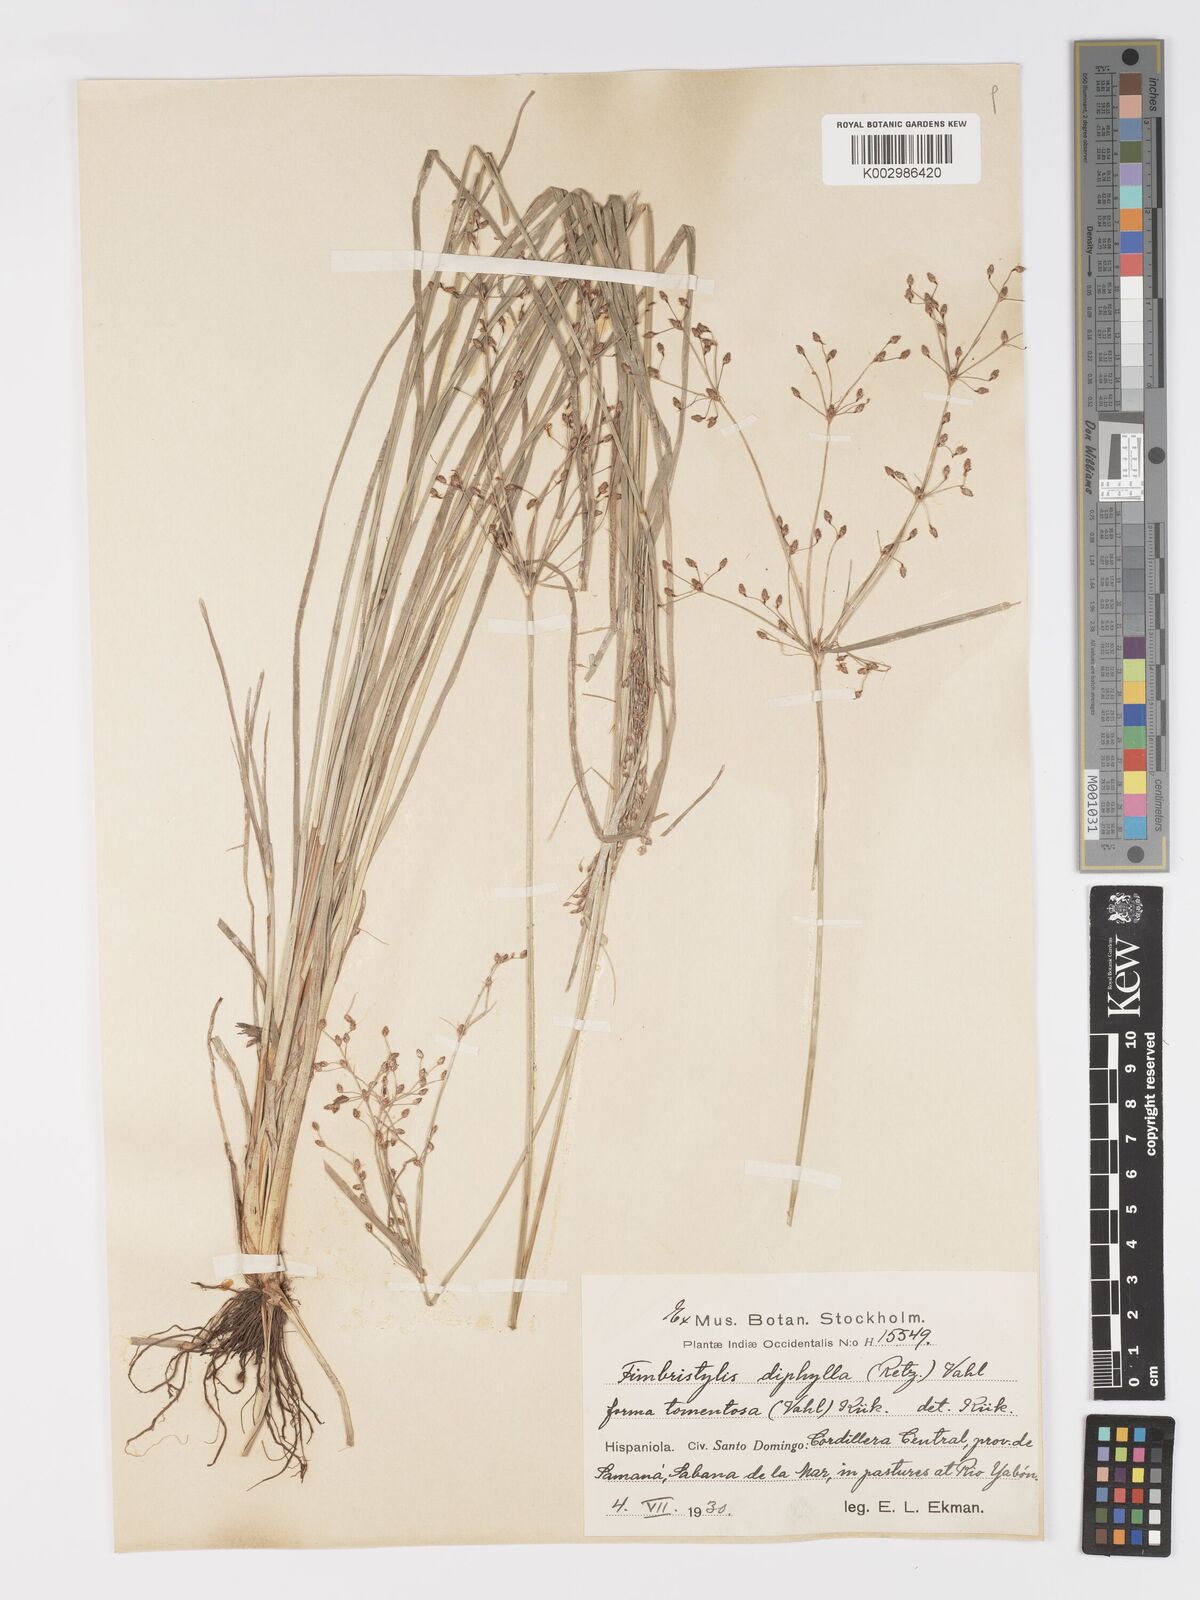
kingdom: Plantae
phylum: Tracheophyta
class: Liliopsida
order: Poales
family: Cyperaceae
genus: Fimbristylis
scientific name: Fimbristylis dichotoma
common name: Forked fimbry
